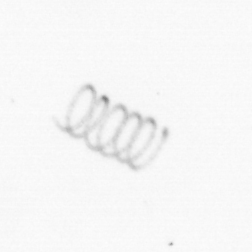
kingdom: Chromista
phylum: Ochrophyta
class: Bacillariophyceae
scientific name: Bacillariophyceae
